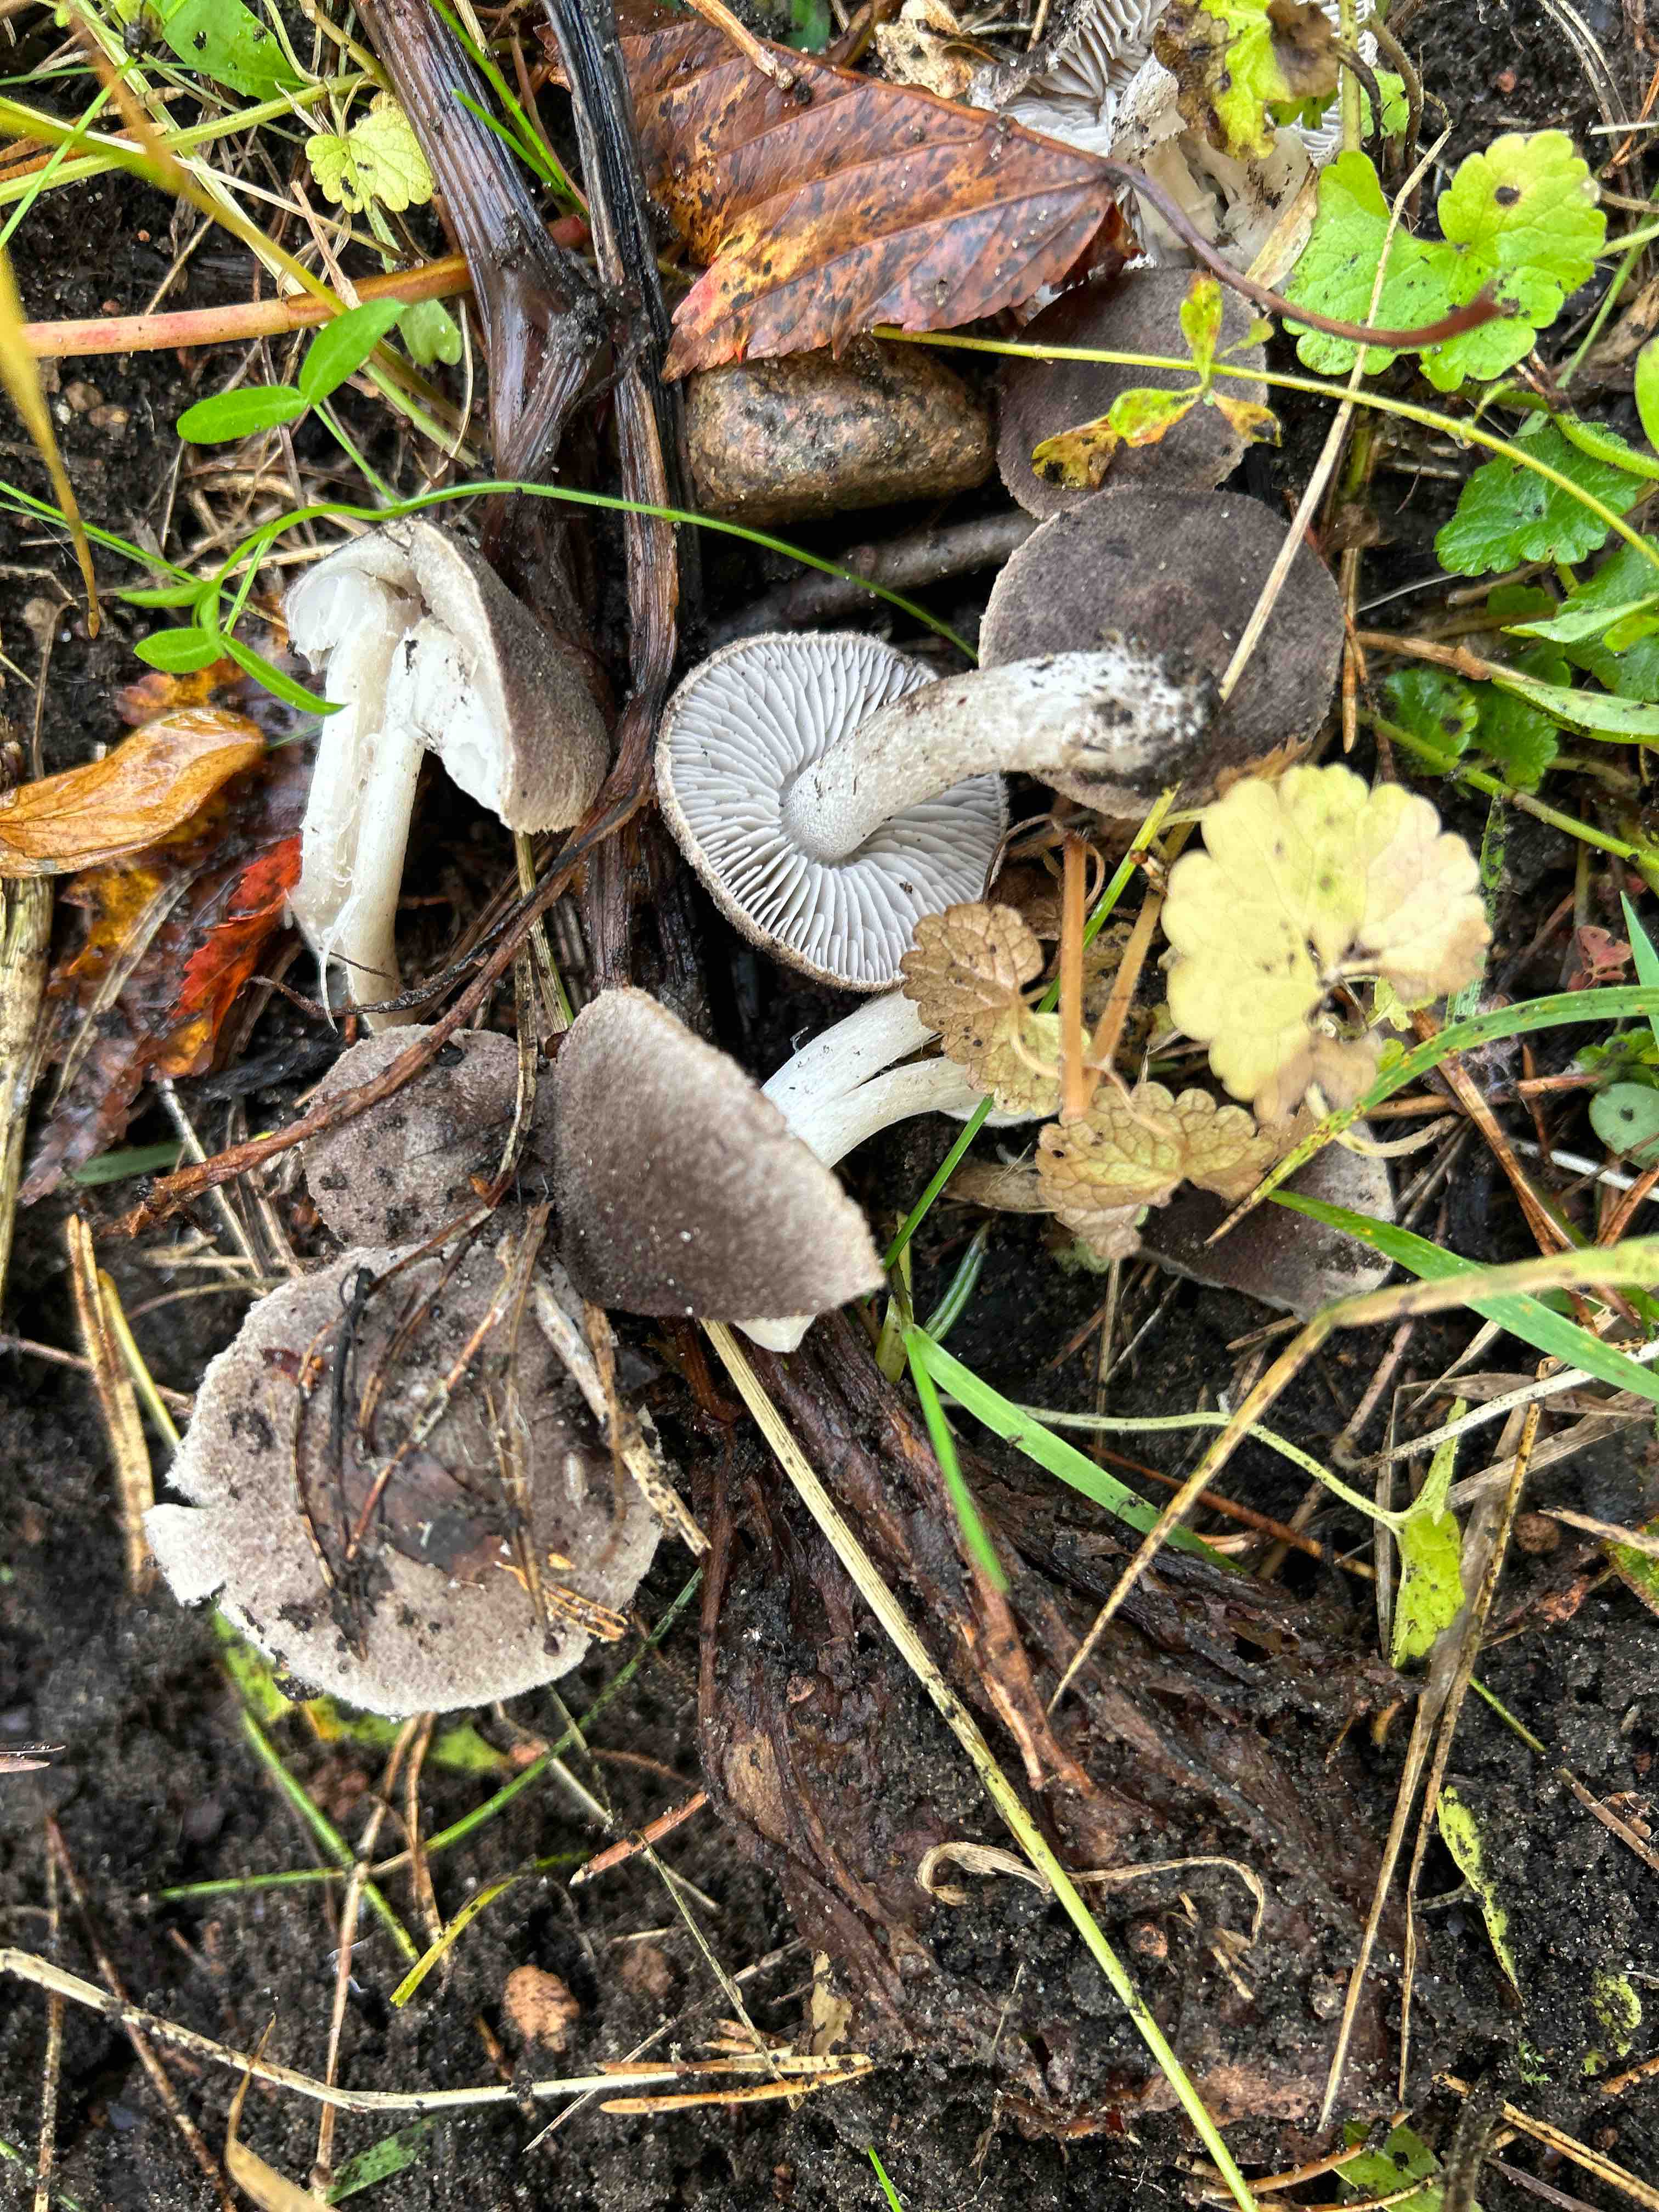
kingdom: Fungi
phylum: Basidiomycota
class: Agaricomycetes
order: Agaricales
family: Tricholomataceae
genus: Tricholoma
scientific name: Tricholoma terreum
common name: jordfarvet ridderhat
